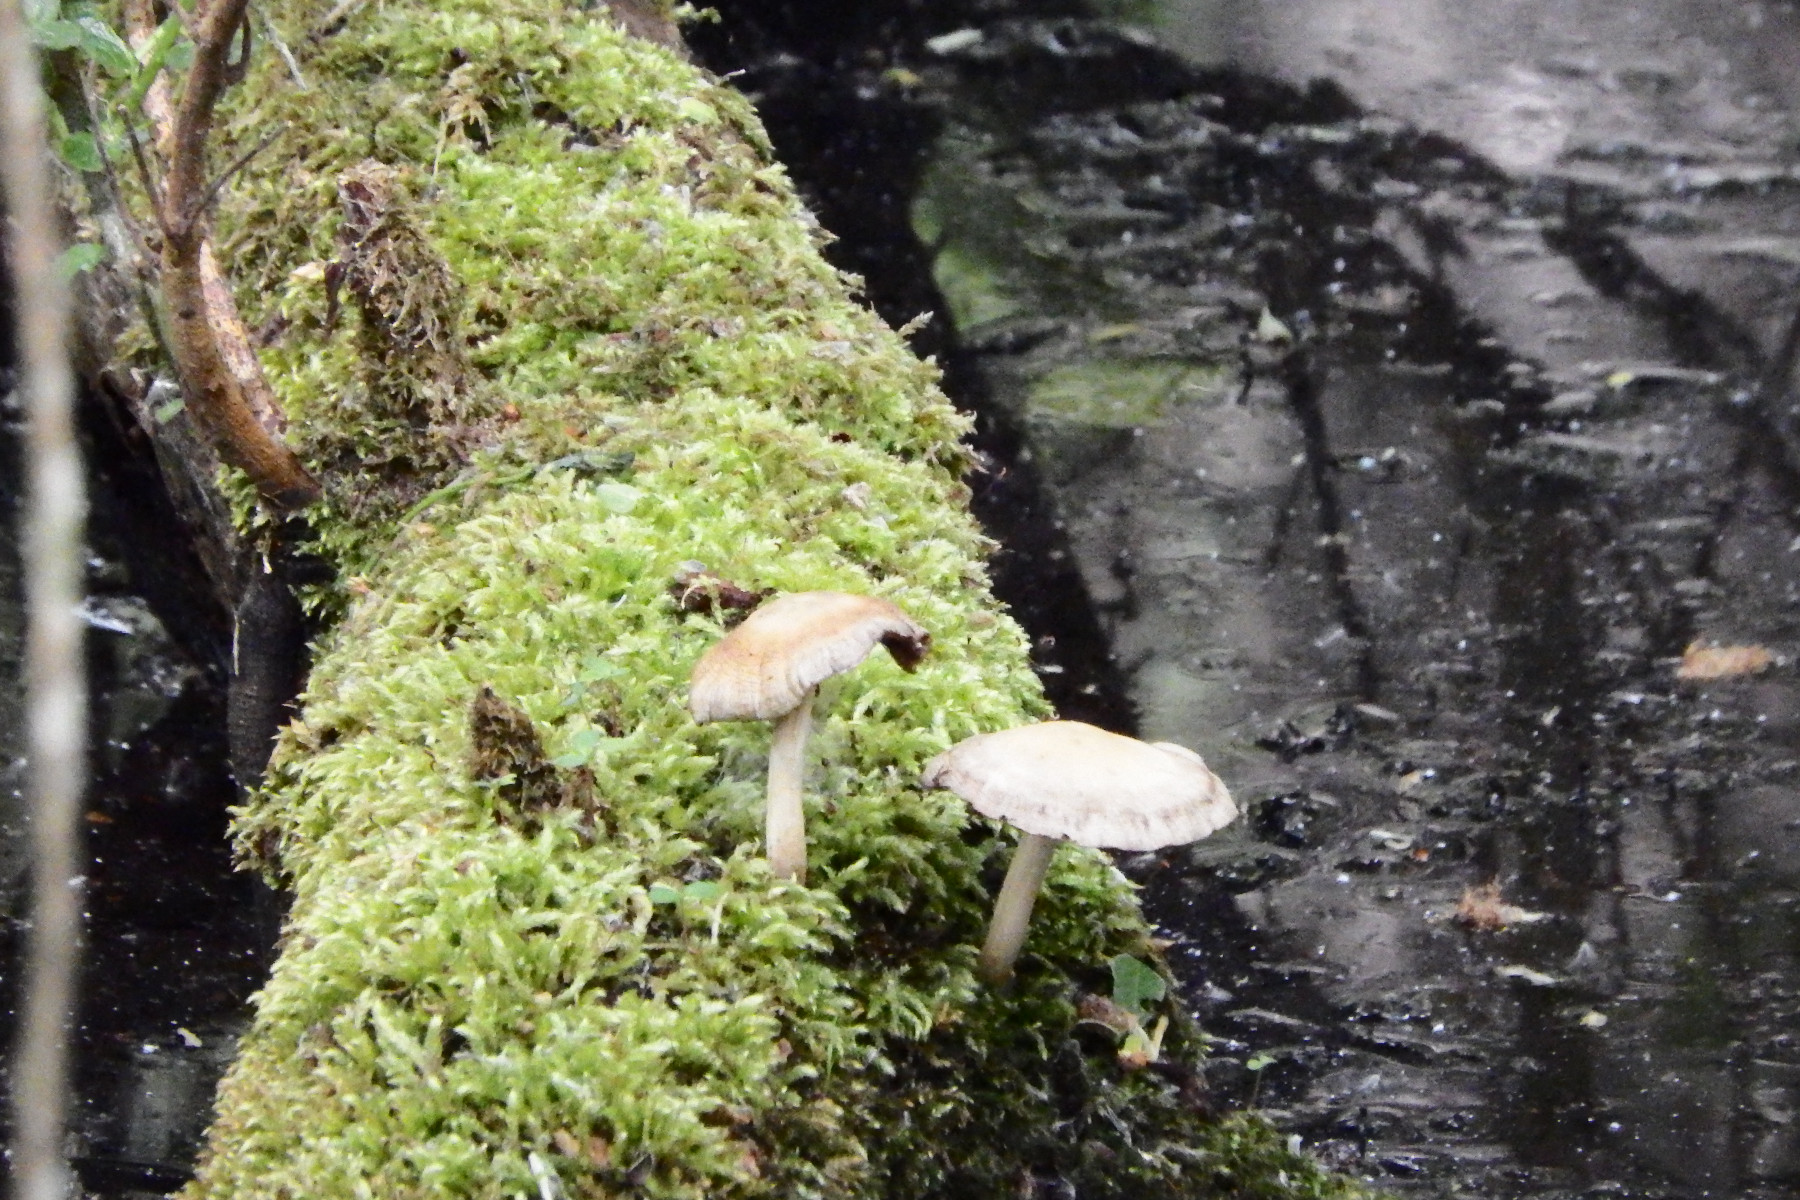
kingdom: Fungi
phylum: Basidiomycota
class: Agaricomycetes
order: Agaricales
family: Psathyrellaceae
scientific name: Psathyrellaceae
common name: mørkhatfamilien
